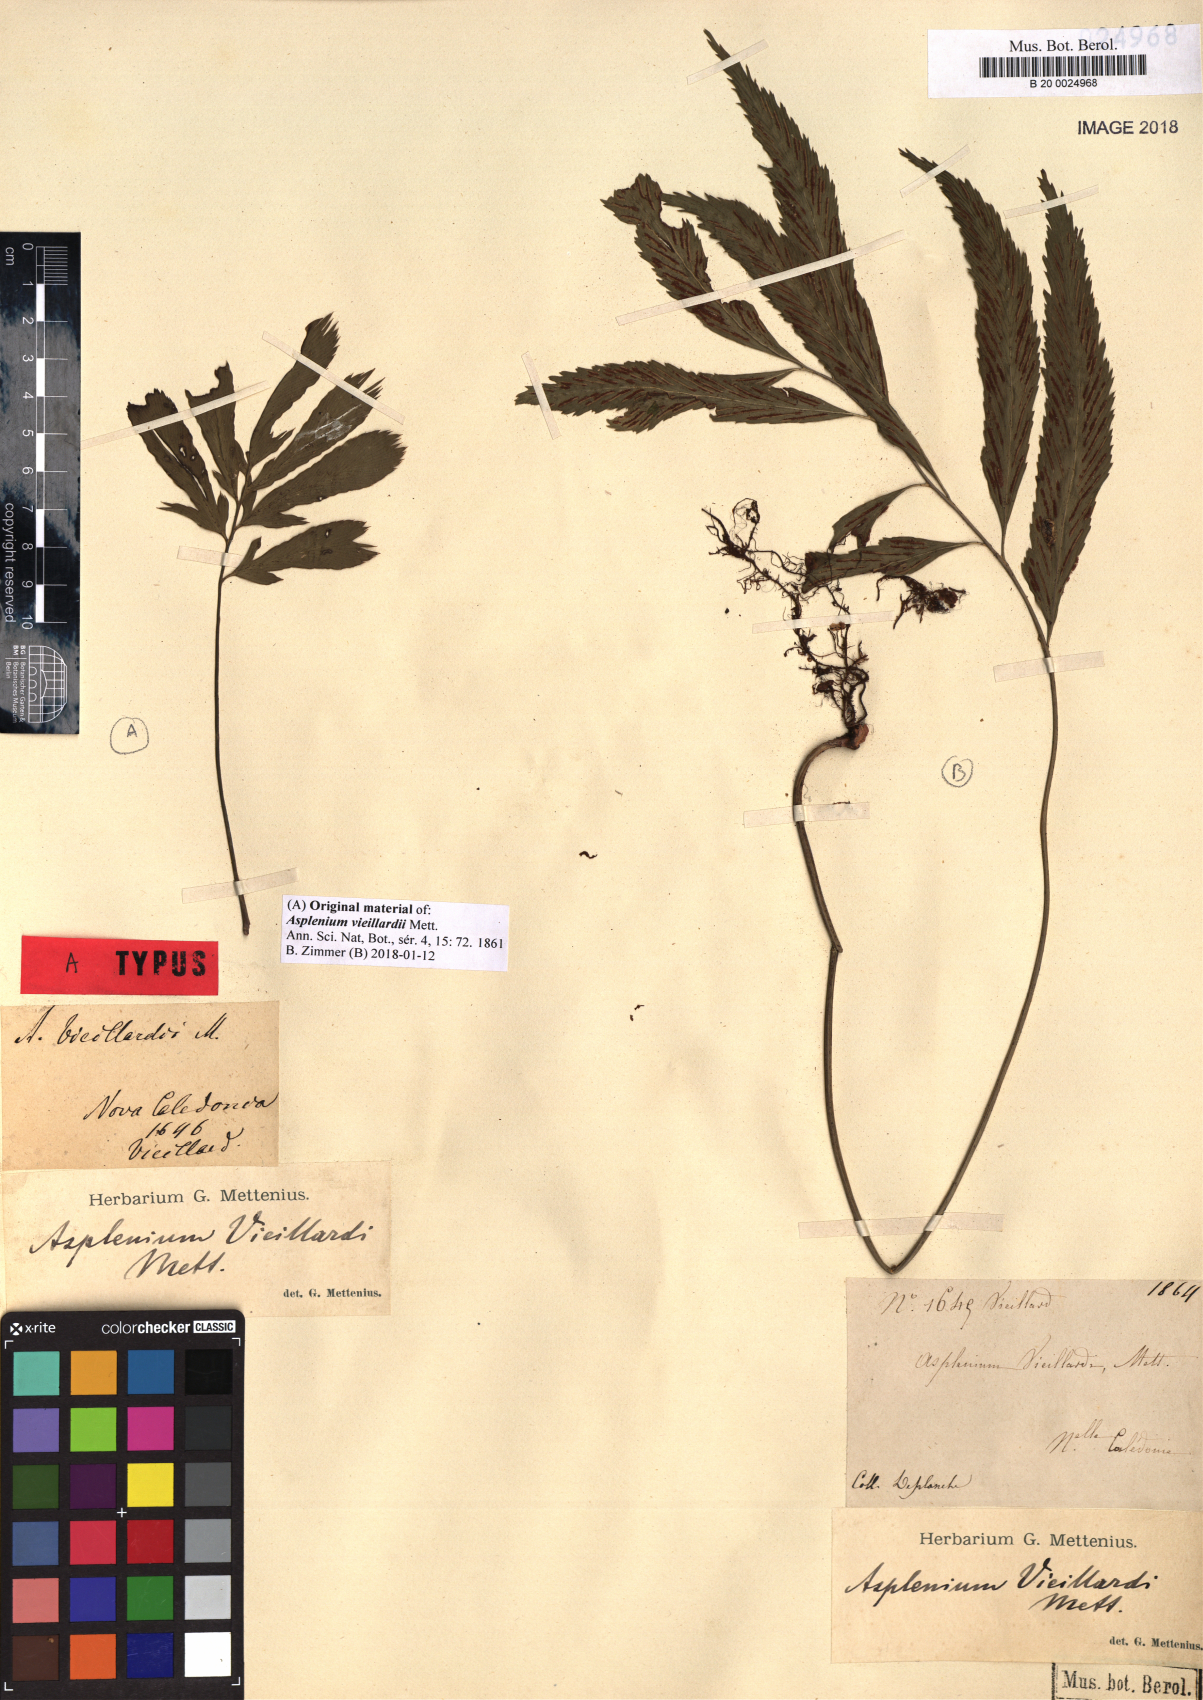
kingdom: Plantae
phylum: Tracheophyta
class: Polypodiopsida
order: Polypodiales
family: Aspleniaceae
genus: Asplenium
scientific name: Asplenium vieillardii
